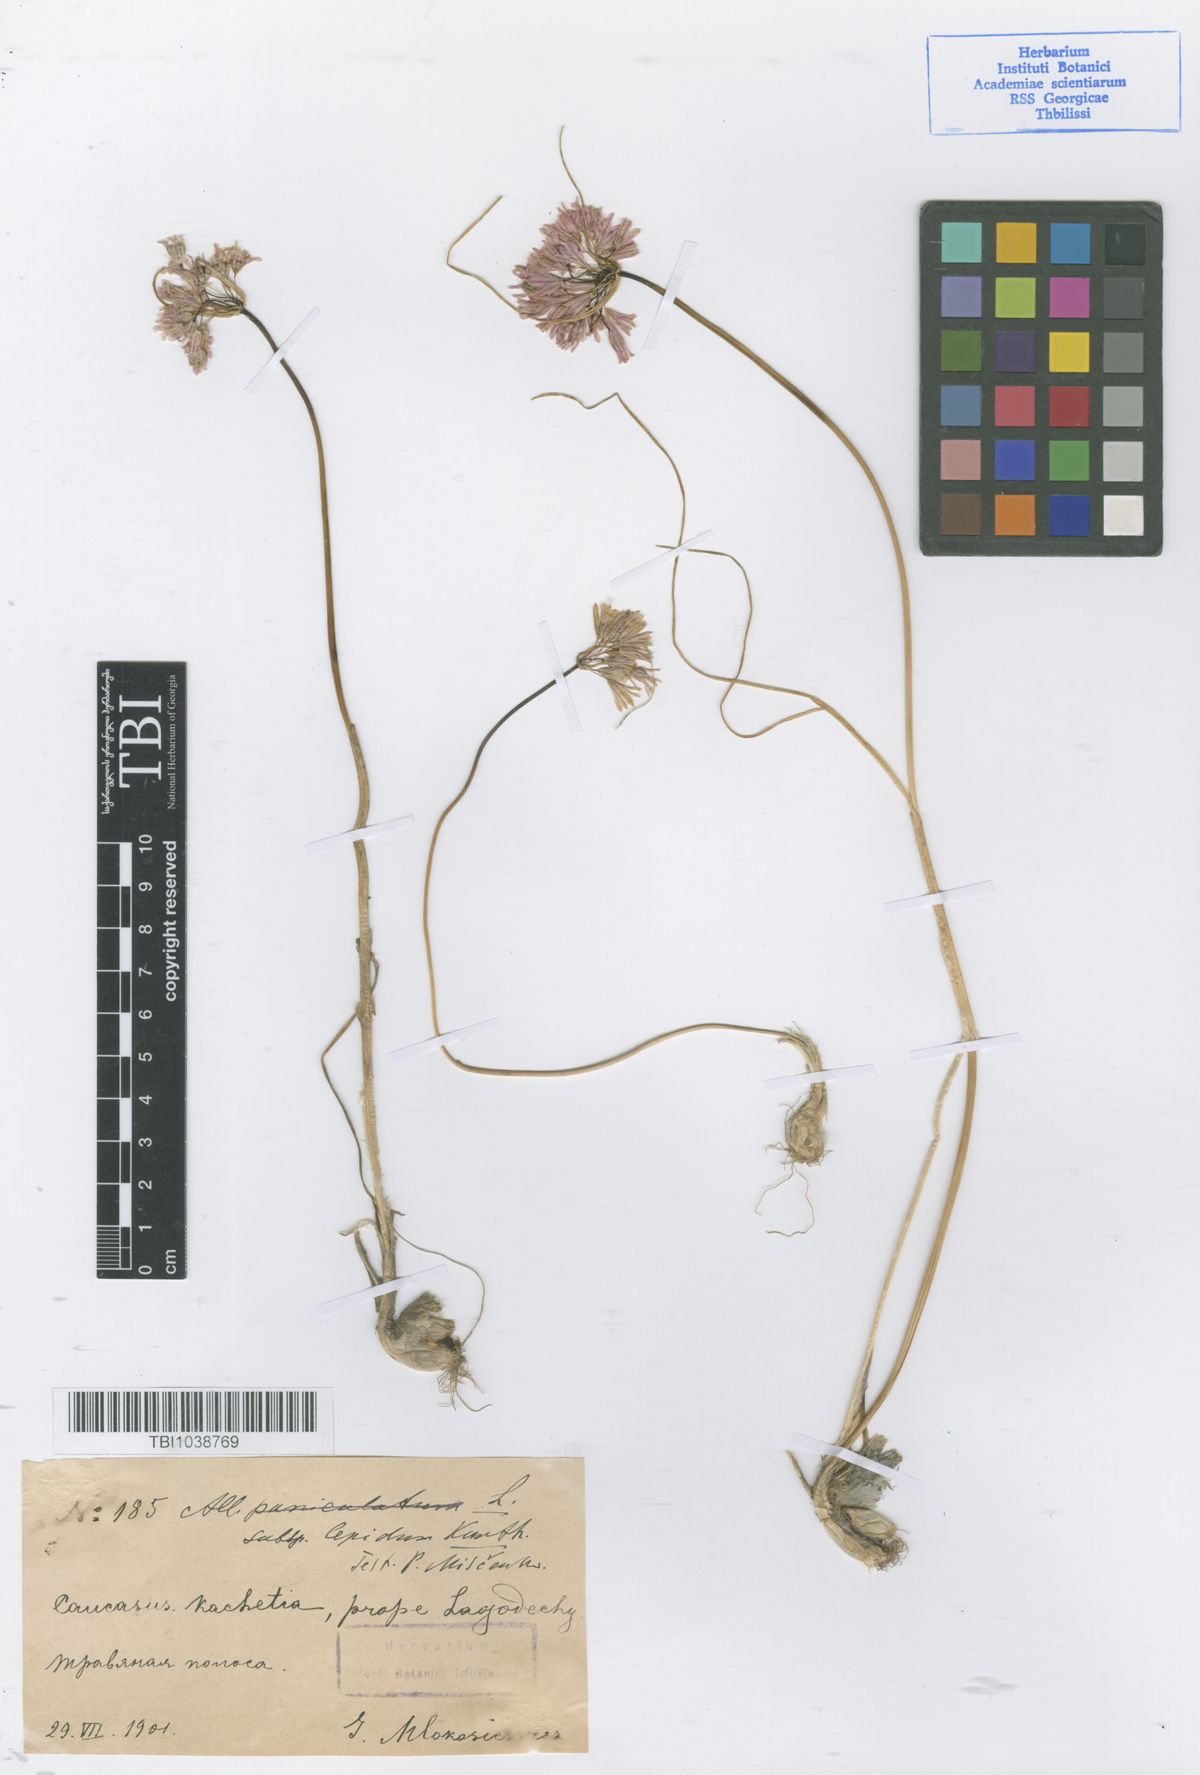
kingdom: Plantae
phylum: Tracheophyta
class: Liliopsida
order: Asparagales
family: Amaryllidaceae
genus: Allium
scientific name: Allium kunthianum
